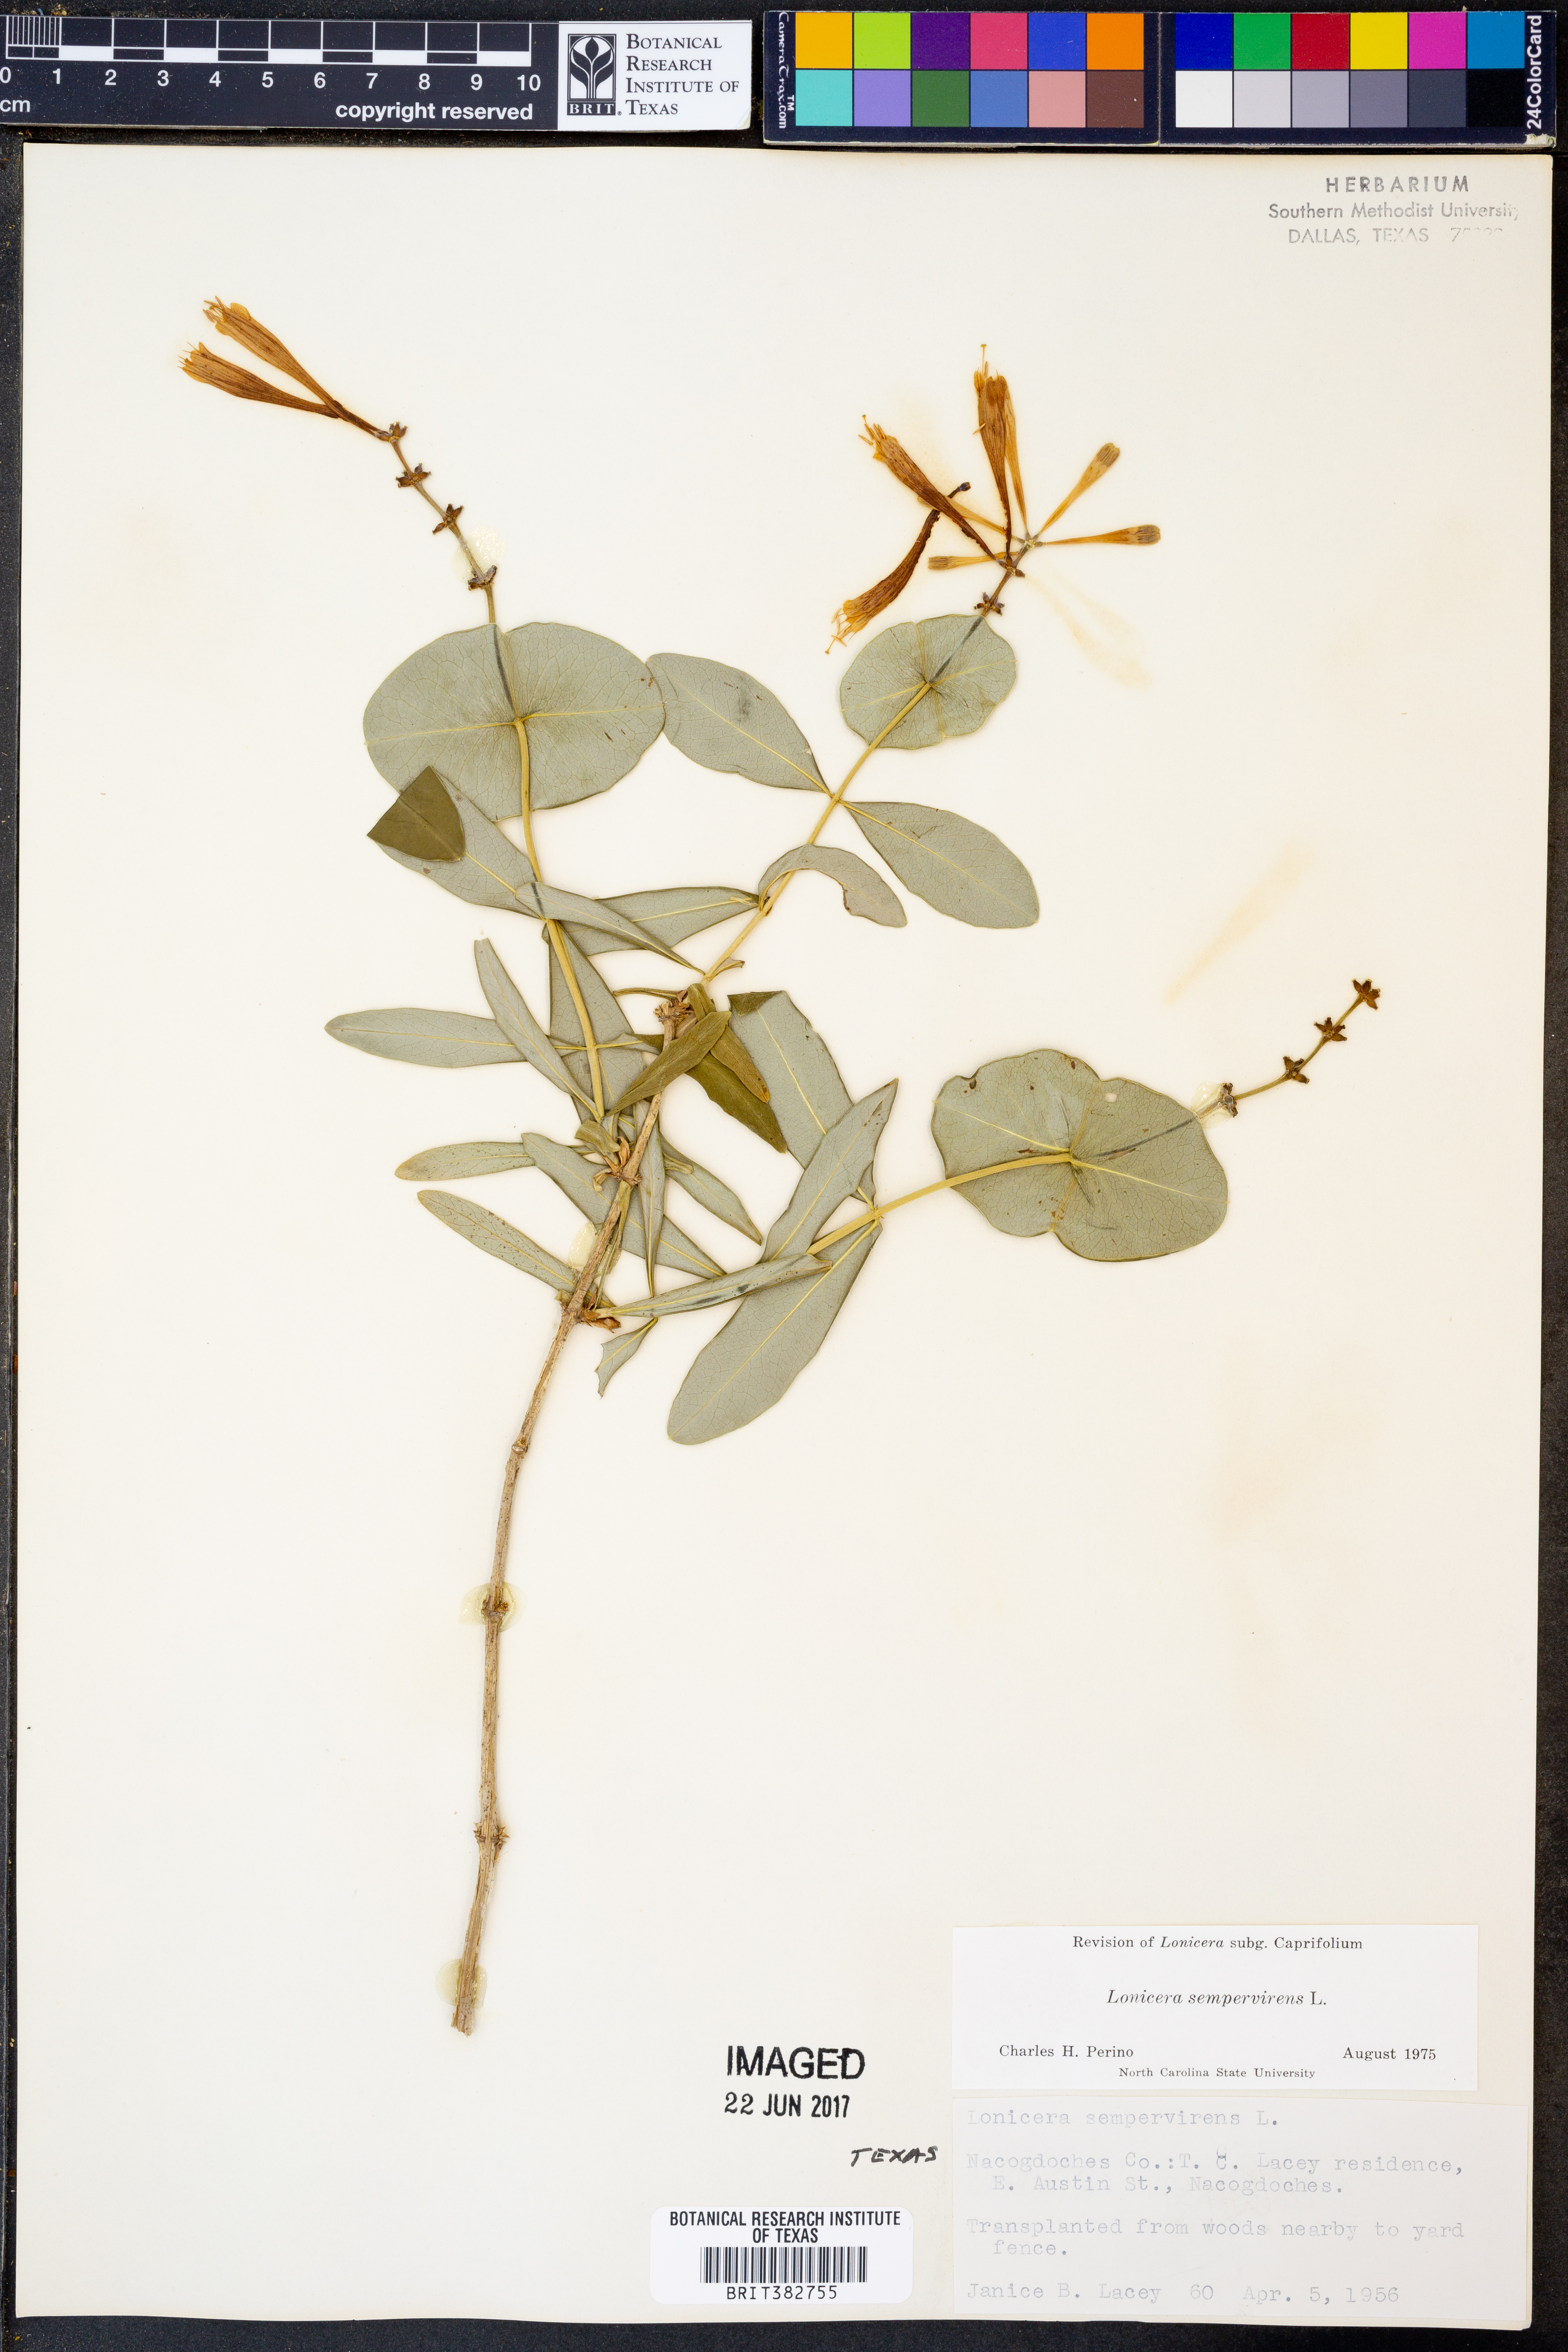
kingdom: Plantae
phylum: Tracheophyta
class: Magnoliopsida
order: Dipsacales
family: Caprifoliaceae
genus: Lonicera
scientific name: Lonicera sempervirens
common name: Coral honeysuckle
